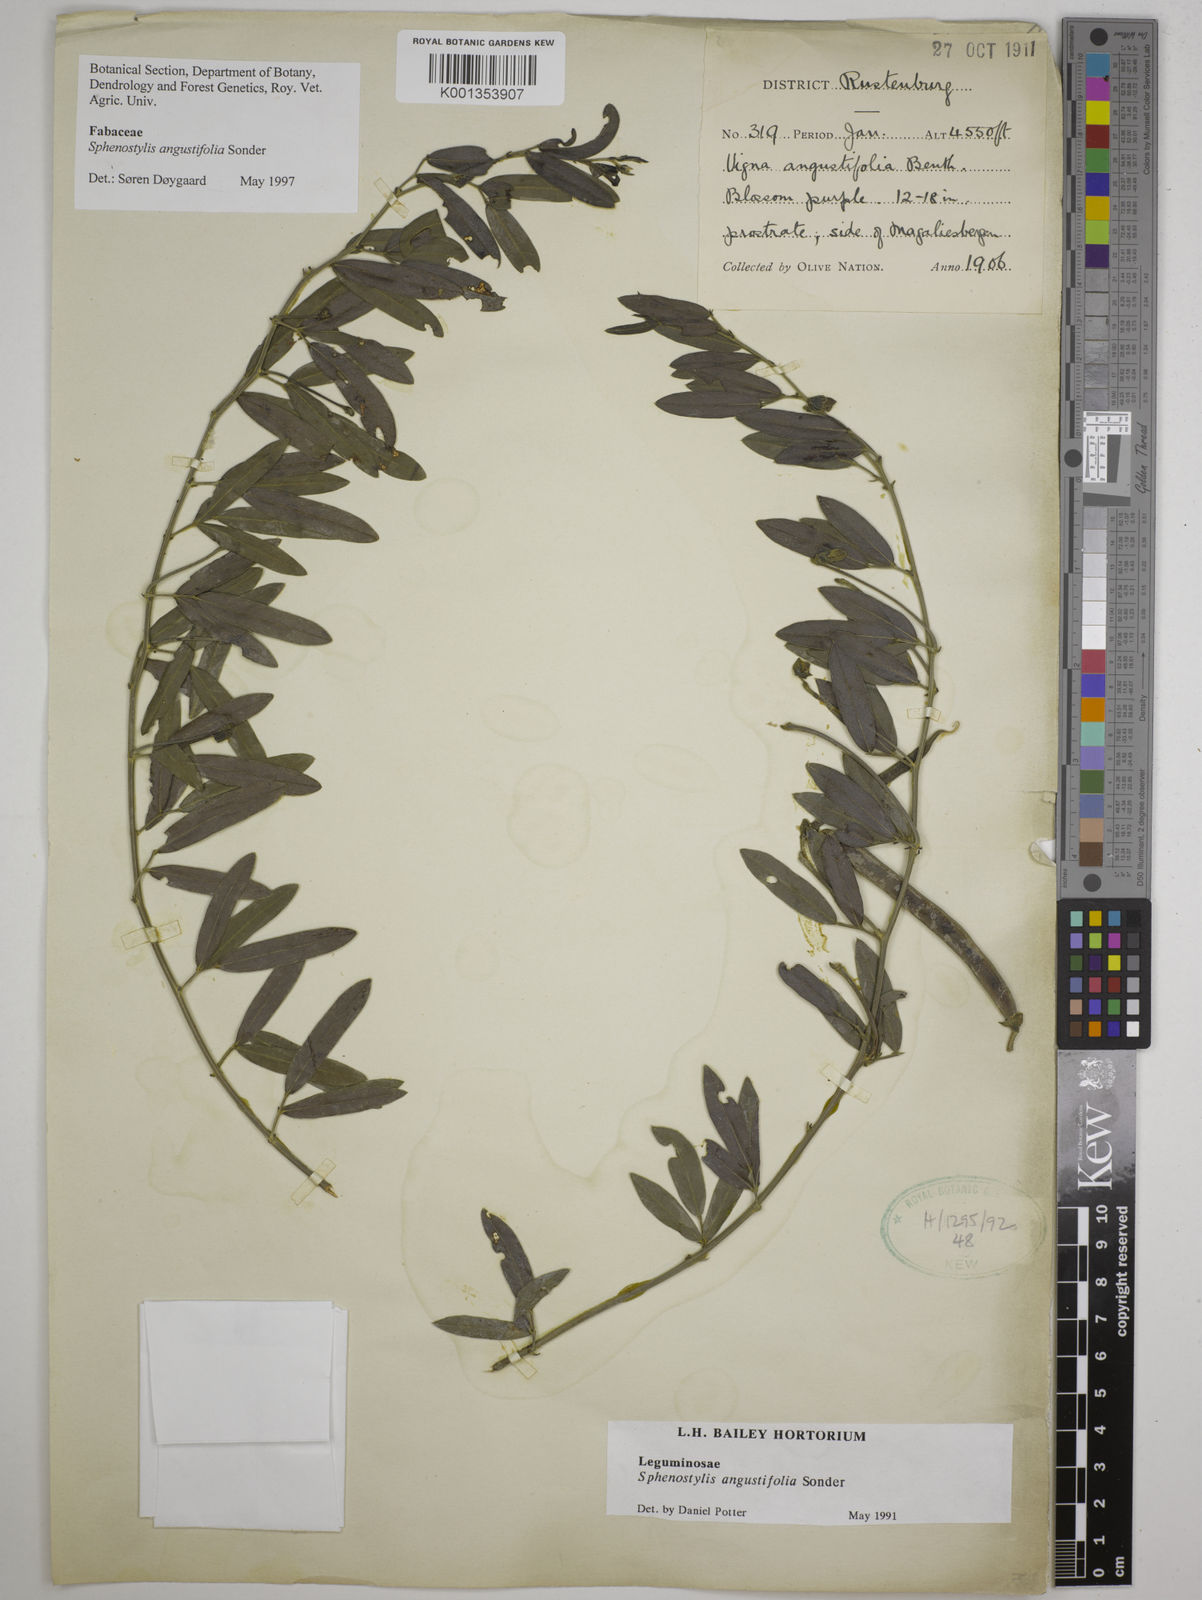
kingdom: Plantae
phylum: Tracheophyta
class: Magnoliopsida
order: Fabales
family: Fabaceae
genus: Sphenostylis
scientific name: Sphenostylis angustifolia
